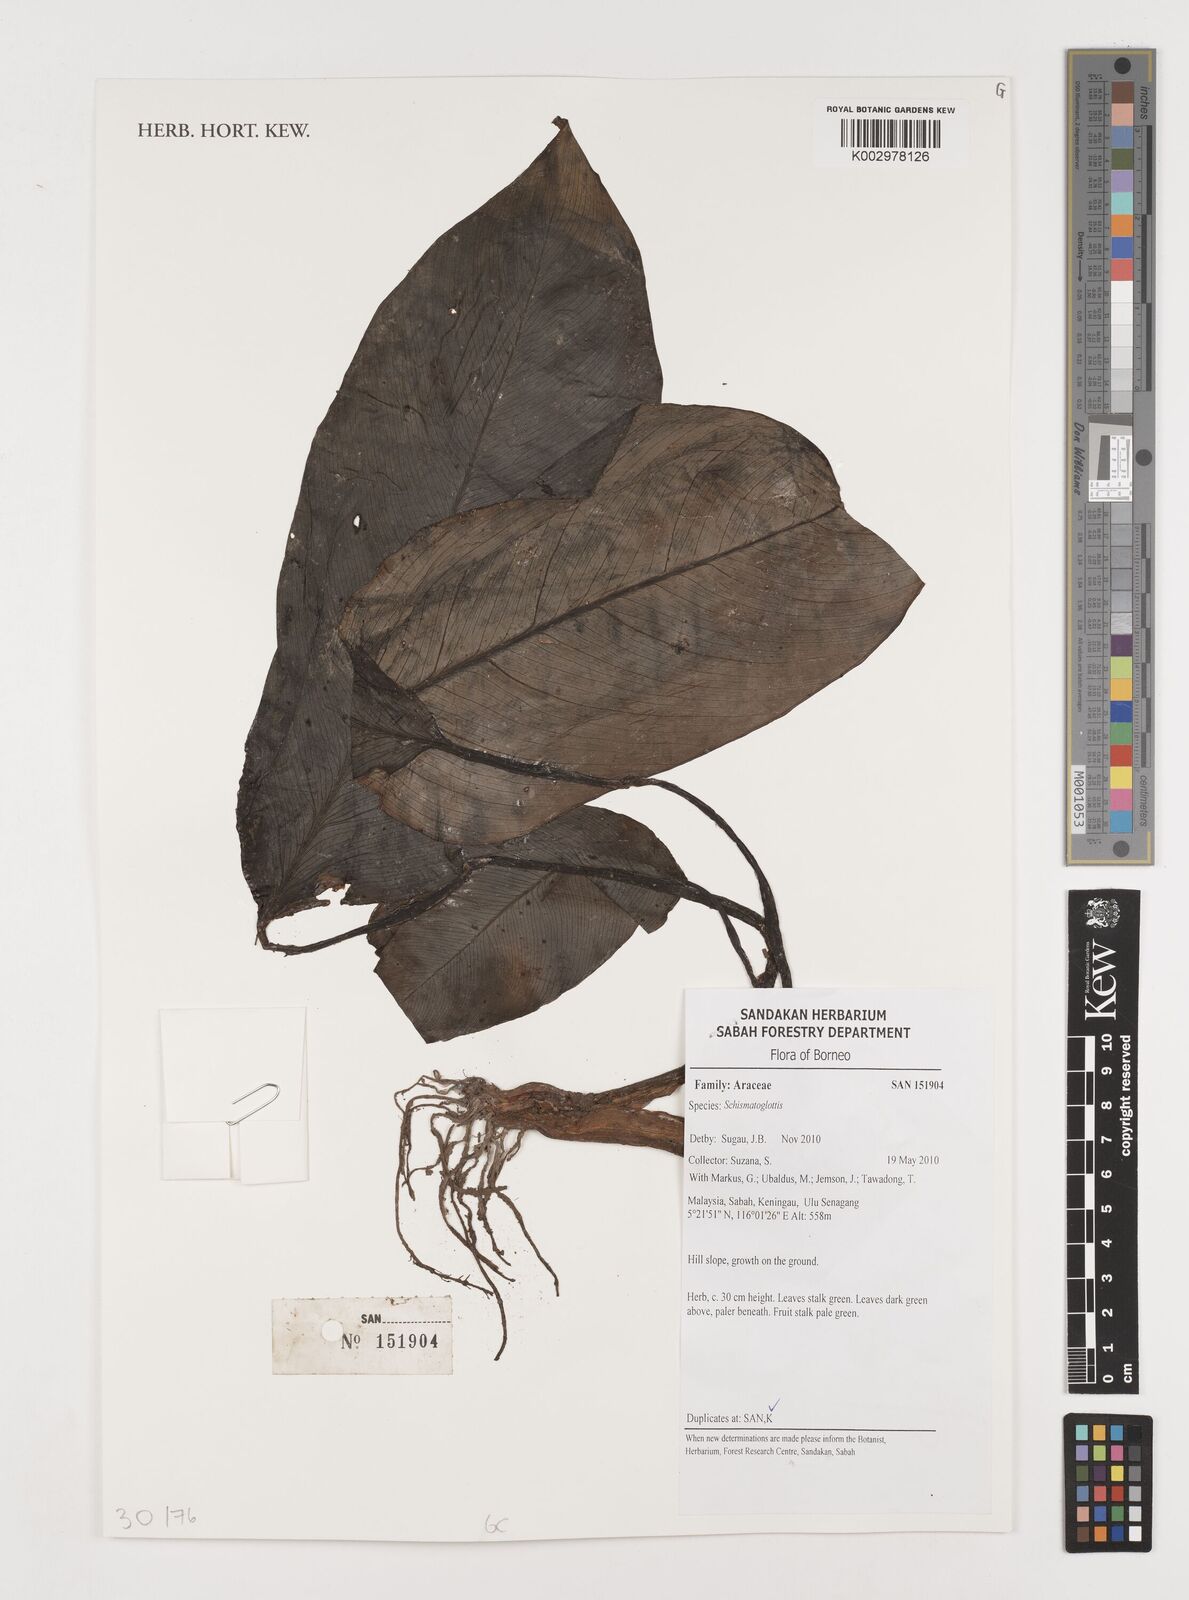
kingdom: Plantae
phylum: Tracheophyta
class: Liliopsida
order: Alismatales
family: Araceae
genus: Schismatoglottis
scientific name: Schismatoglottis
